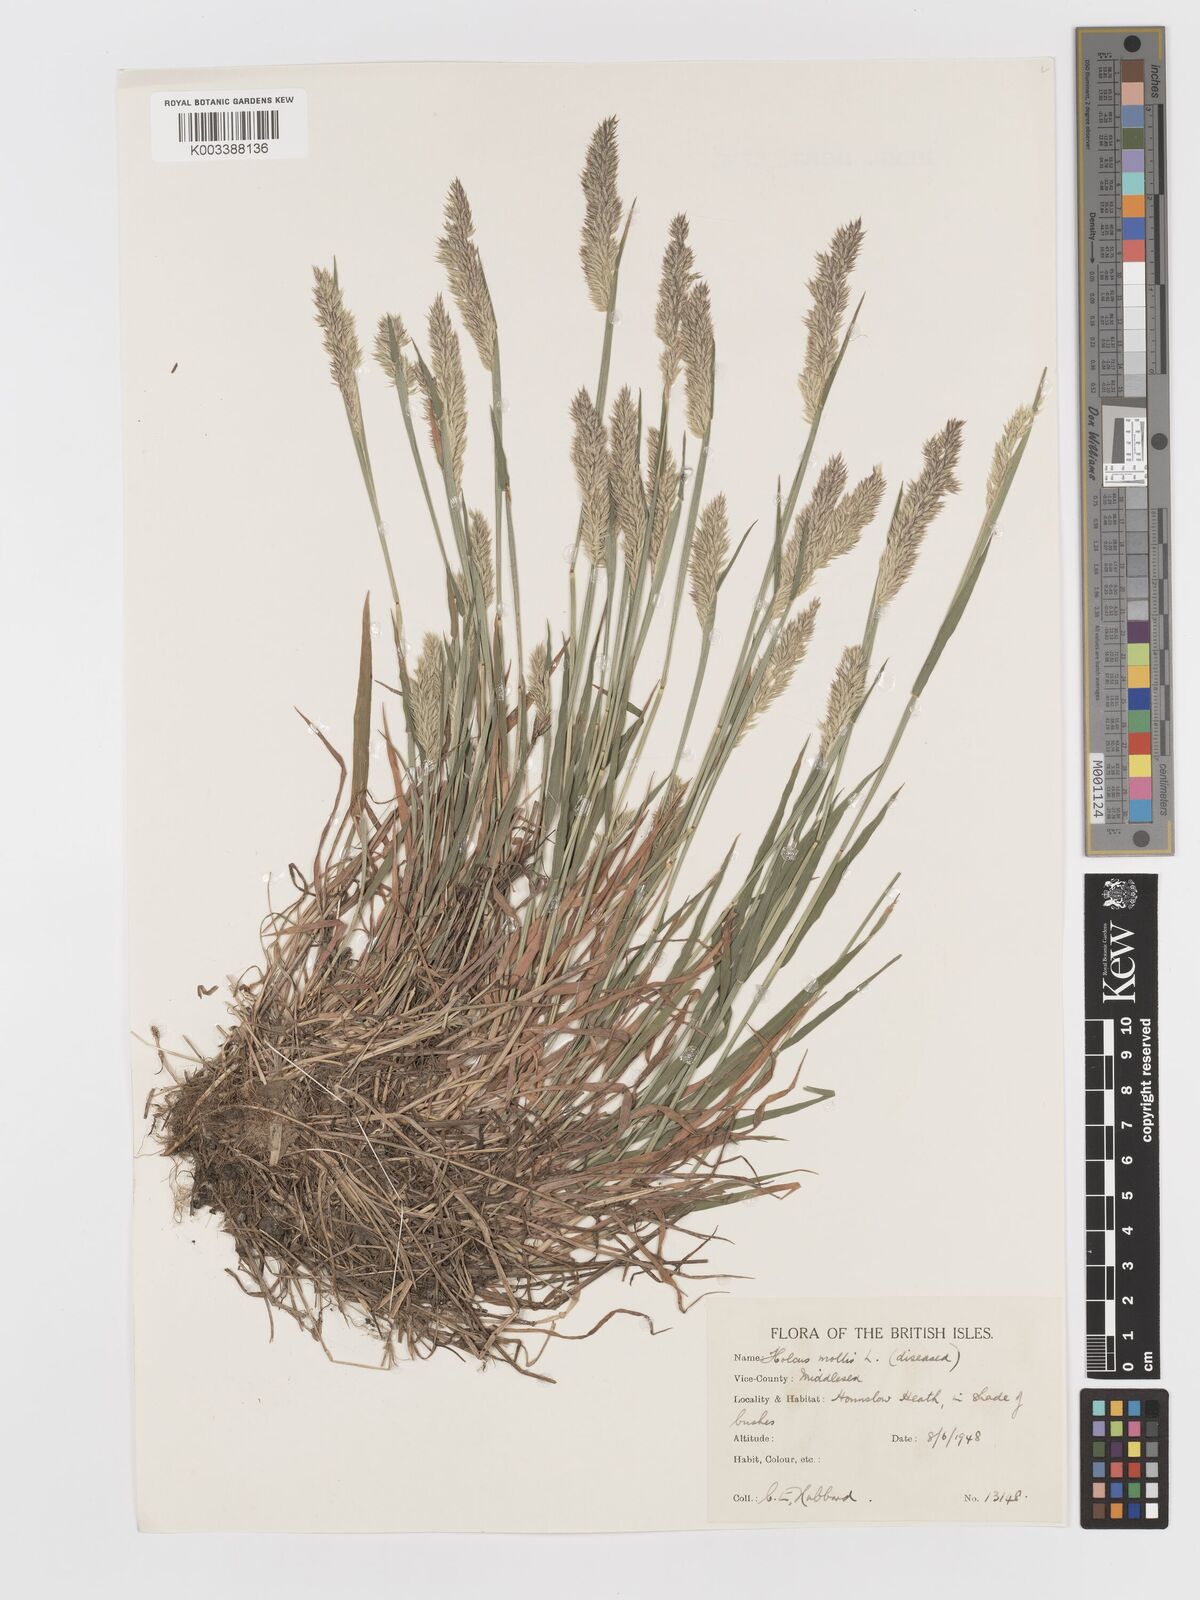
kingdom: Plantae
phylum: Tracheophyta
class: Liliopsida
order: Poales
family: Poaceae
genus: Holcus
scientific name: Holcus mollis
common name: Creeping velvetgrass
